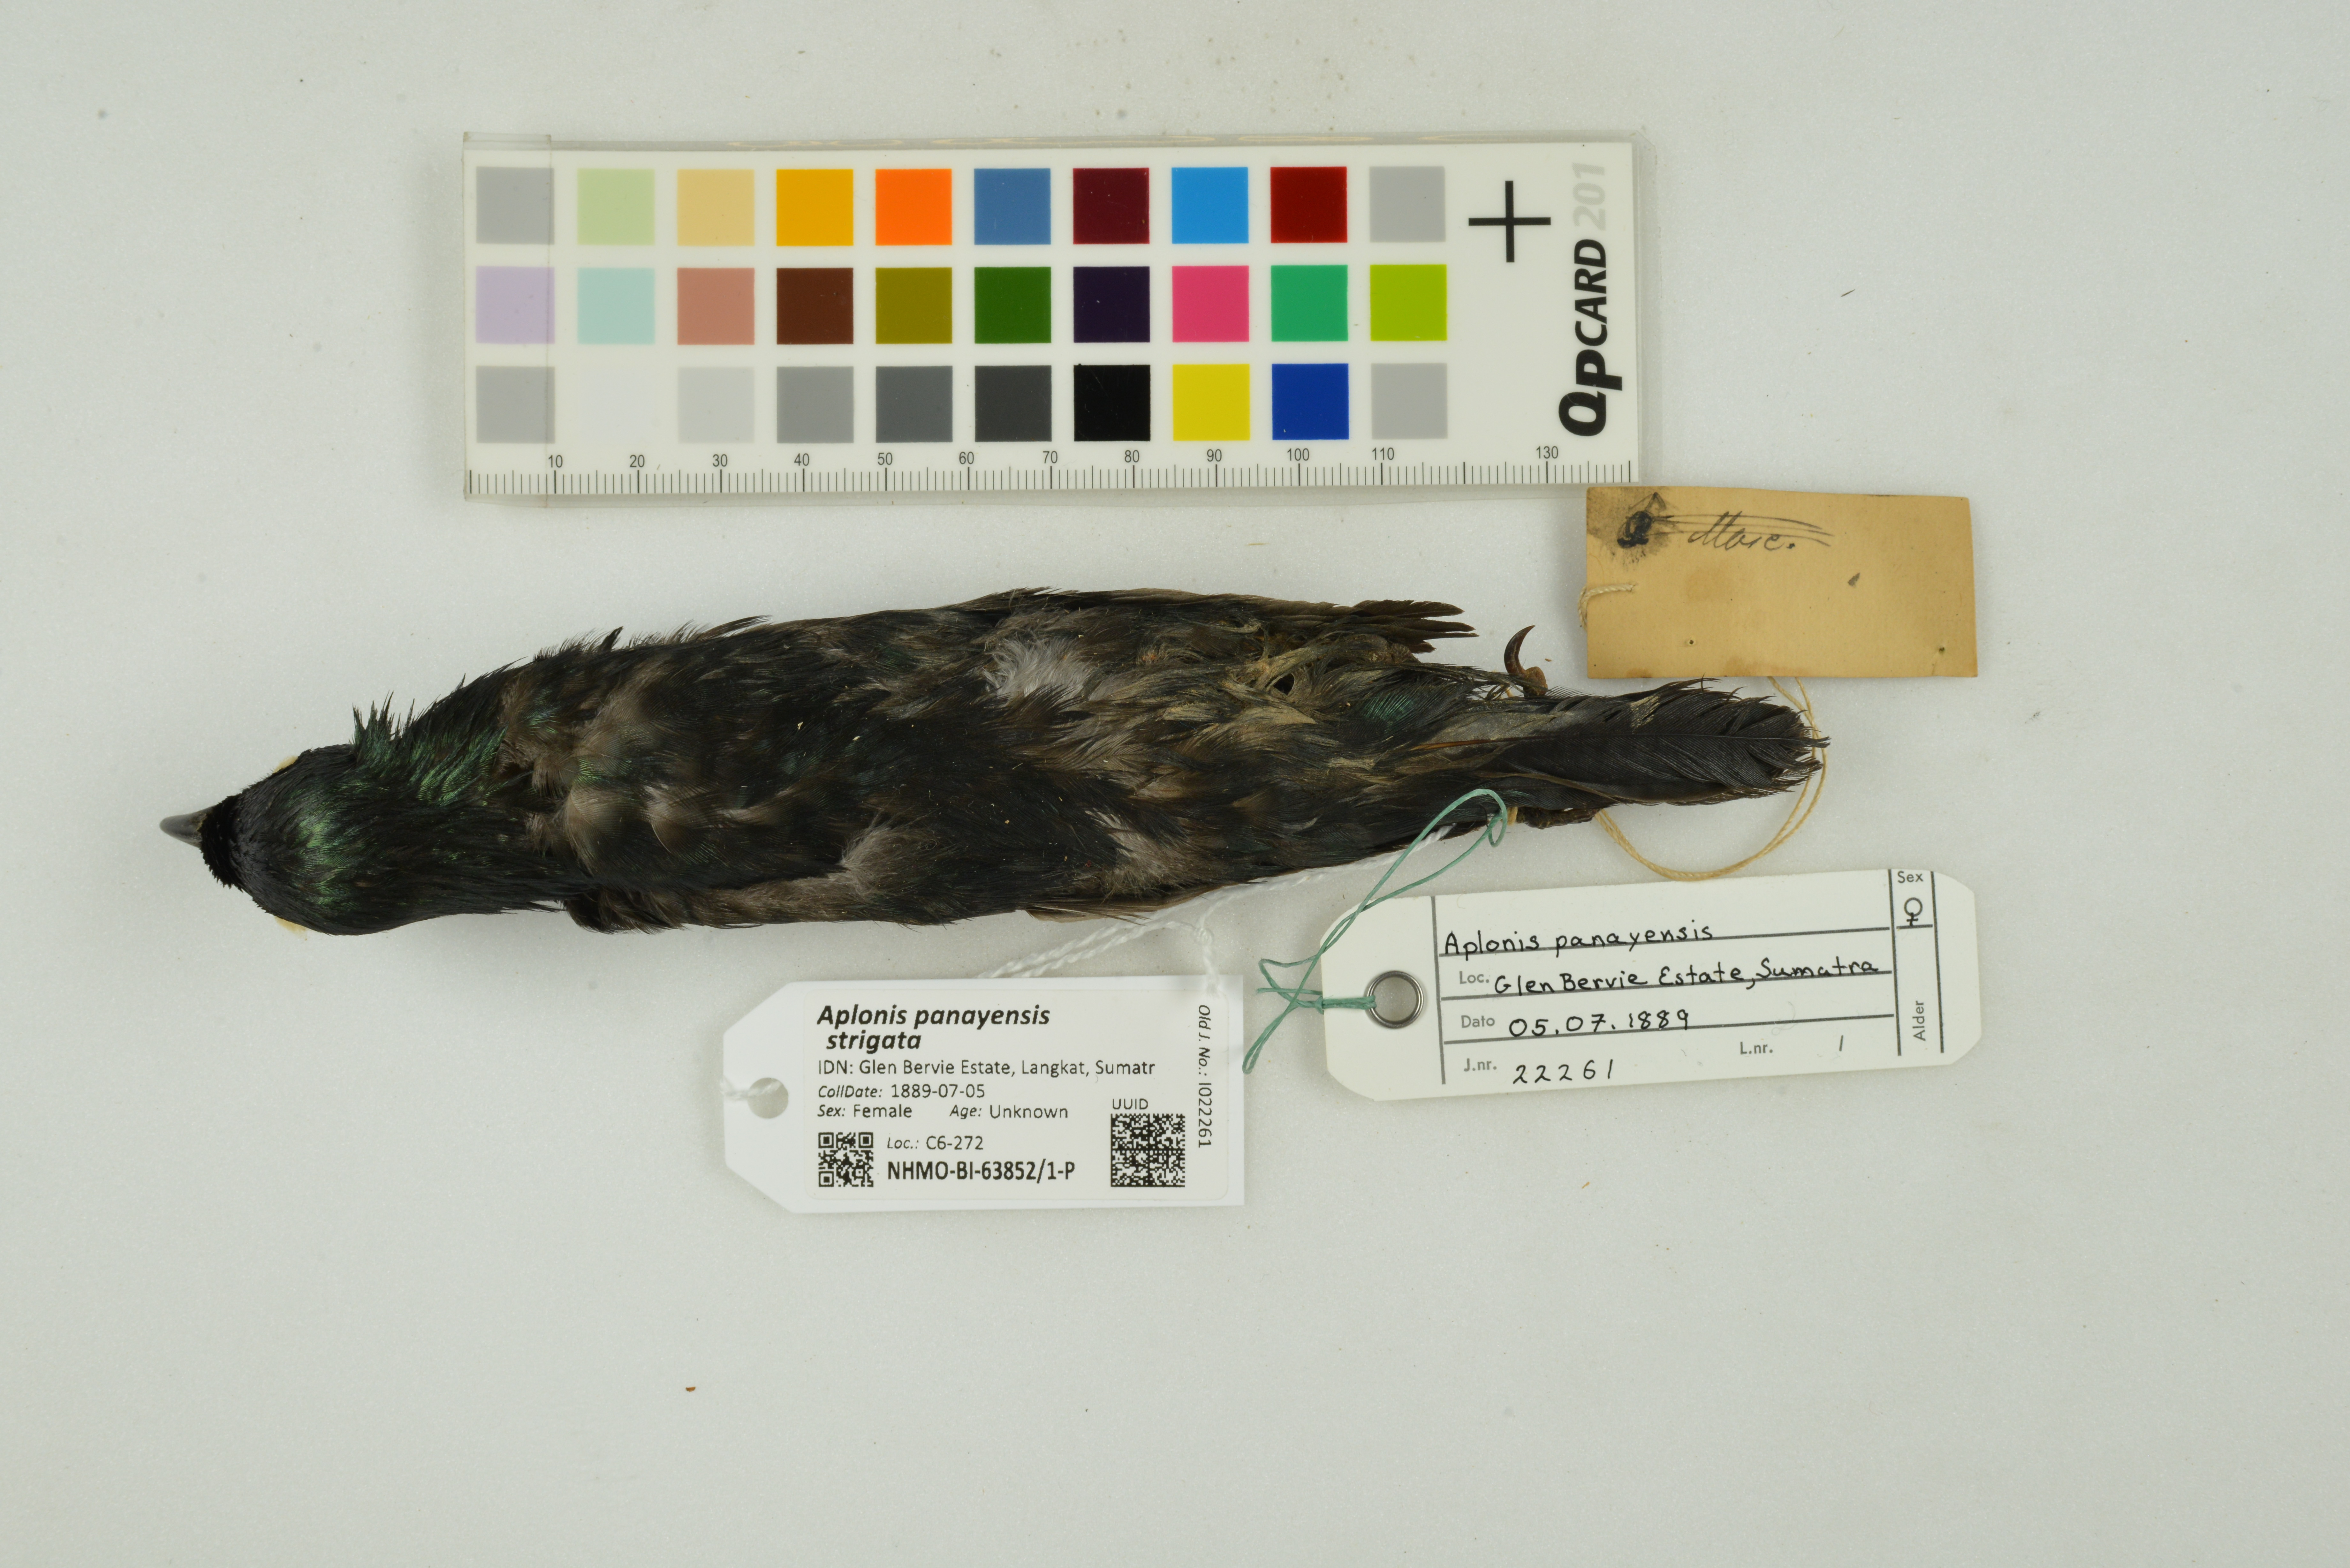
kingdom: Animalia
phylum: Chordata
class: Aves
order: Passeriformes
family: Sturnidae
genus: Aplonis
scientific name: Aplonis panayensis
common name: Asian glossy starling
